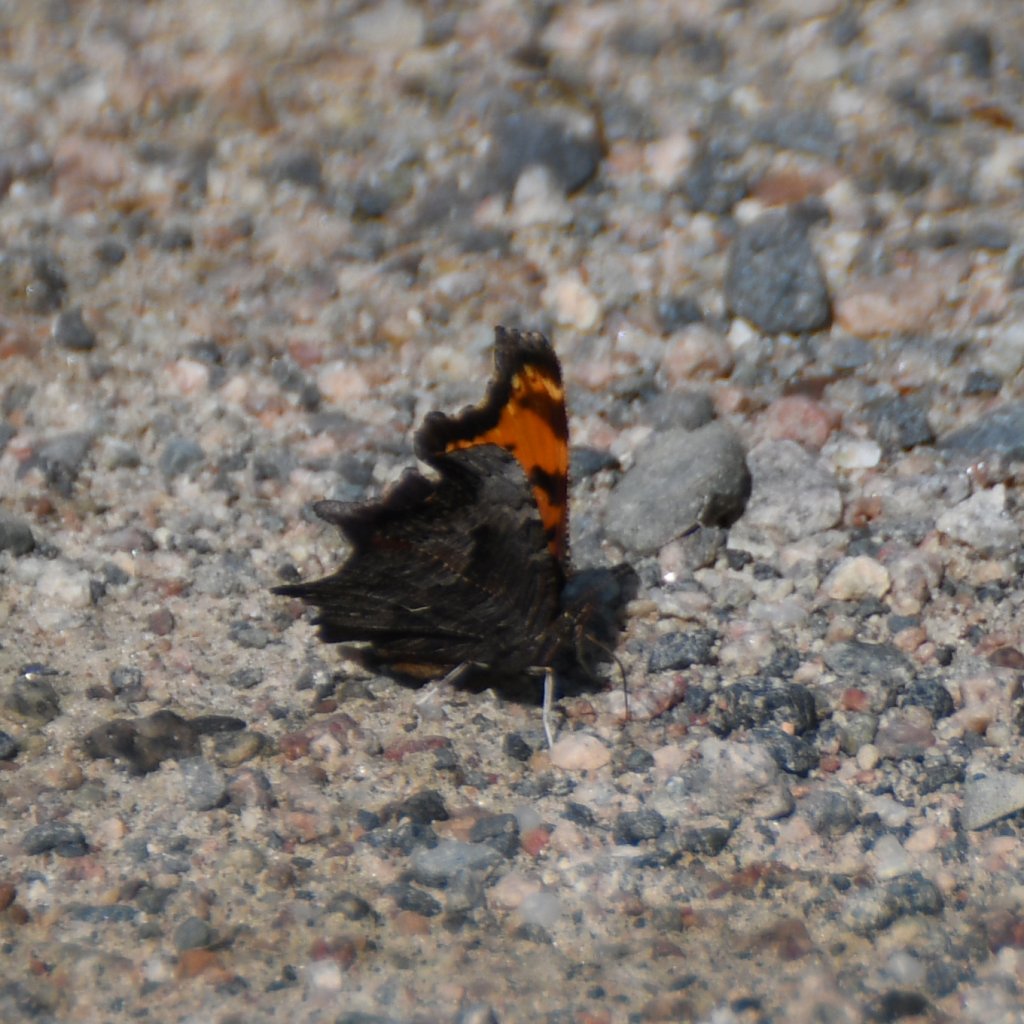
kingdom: Animalia
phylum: Arthropoda
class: Insecta
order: Lepidoptera
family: Nymphalidae
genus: Polygonia
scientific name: Polygonia progne
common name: Gray Comma
